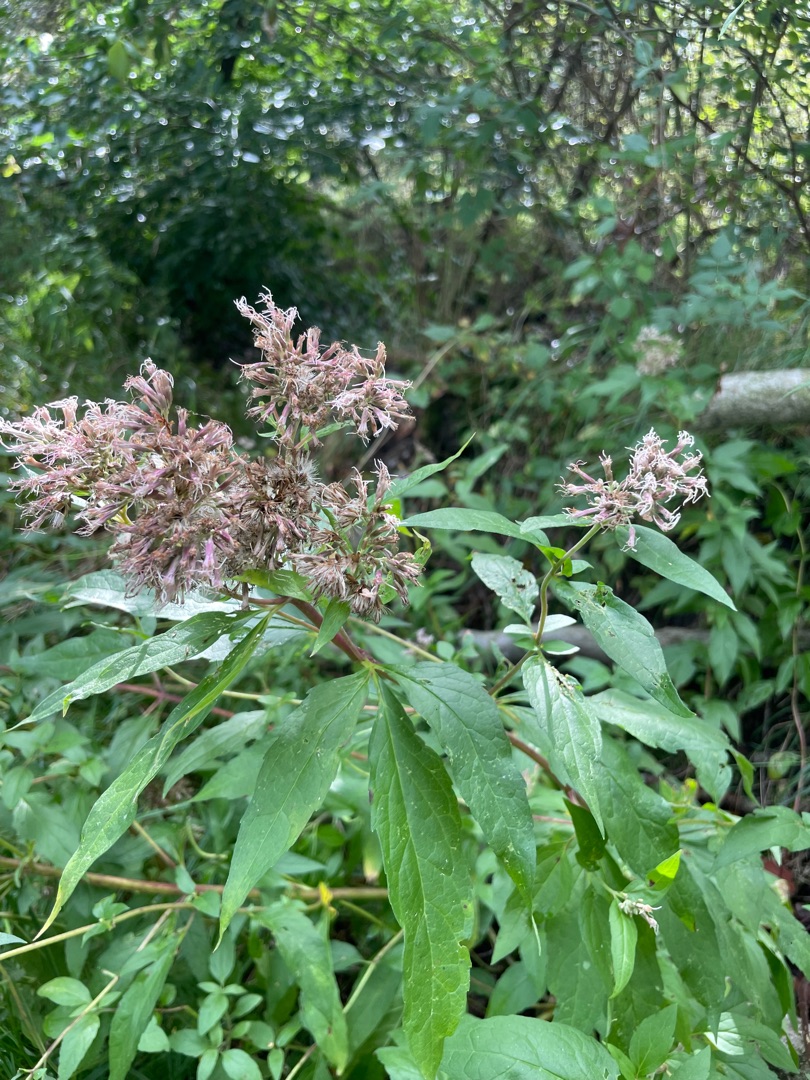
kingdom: Plantae
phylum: Tracheophyta
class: Magnoliopsida
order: Asterales
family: Asteraceae
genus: Eupatorium
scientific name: Eupatorium cannabinum
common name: Hjortetrøst
